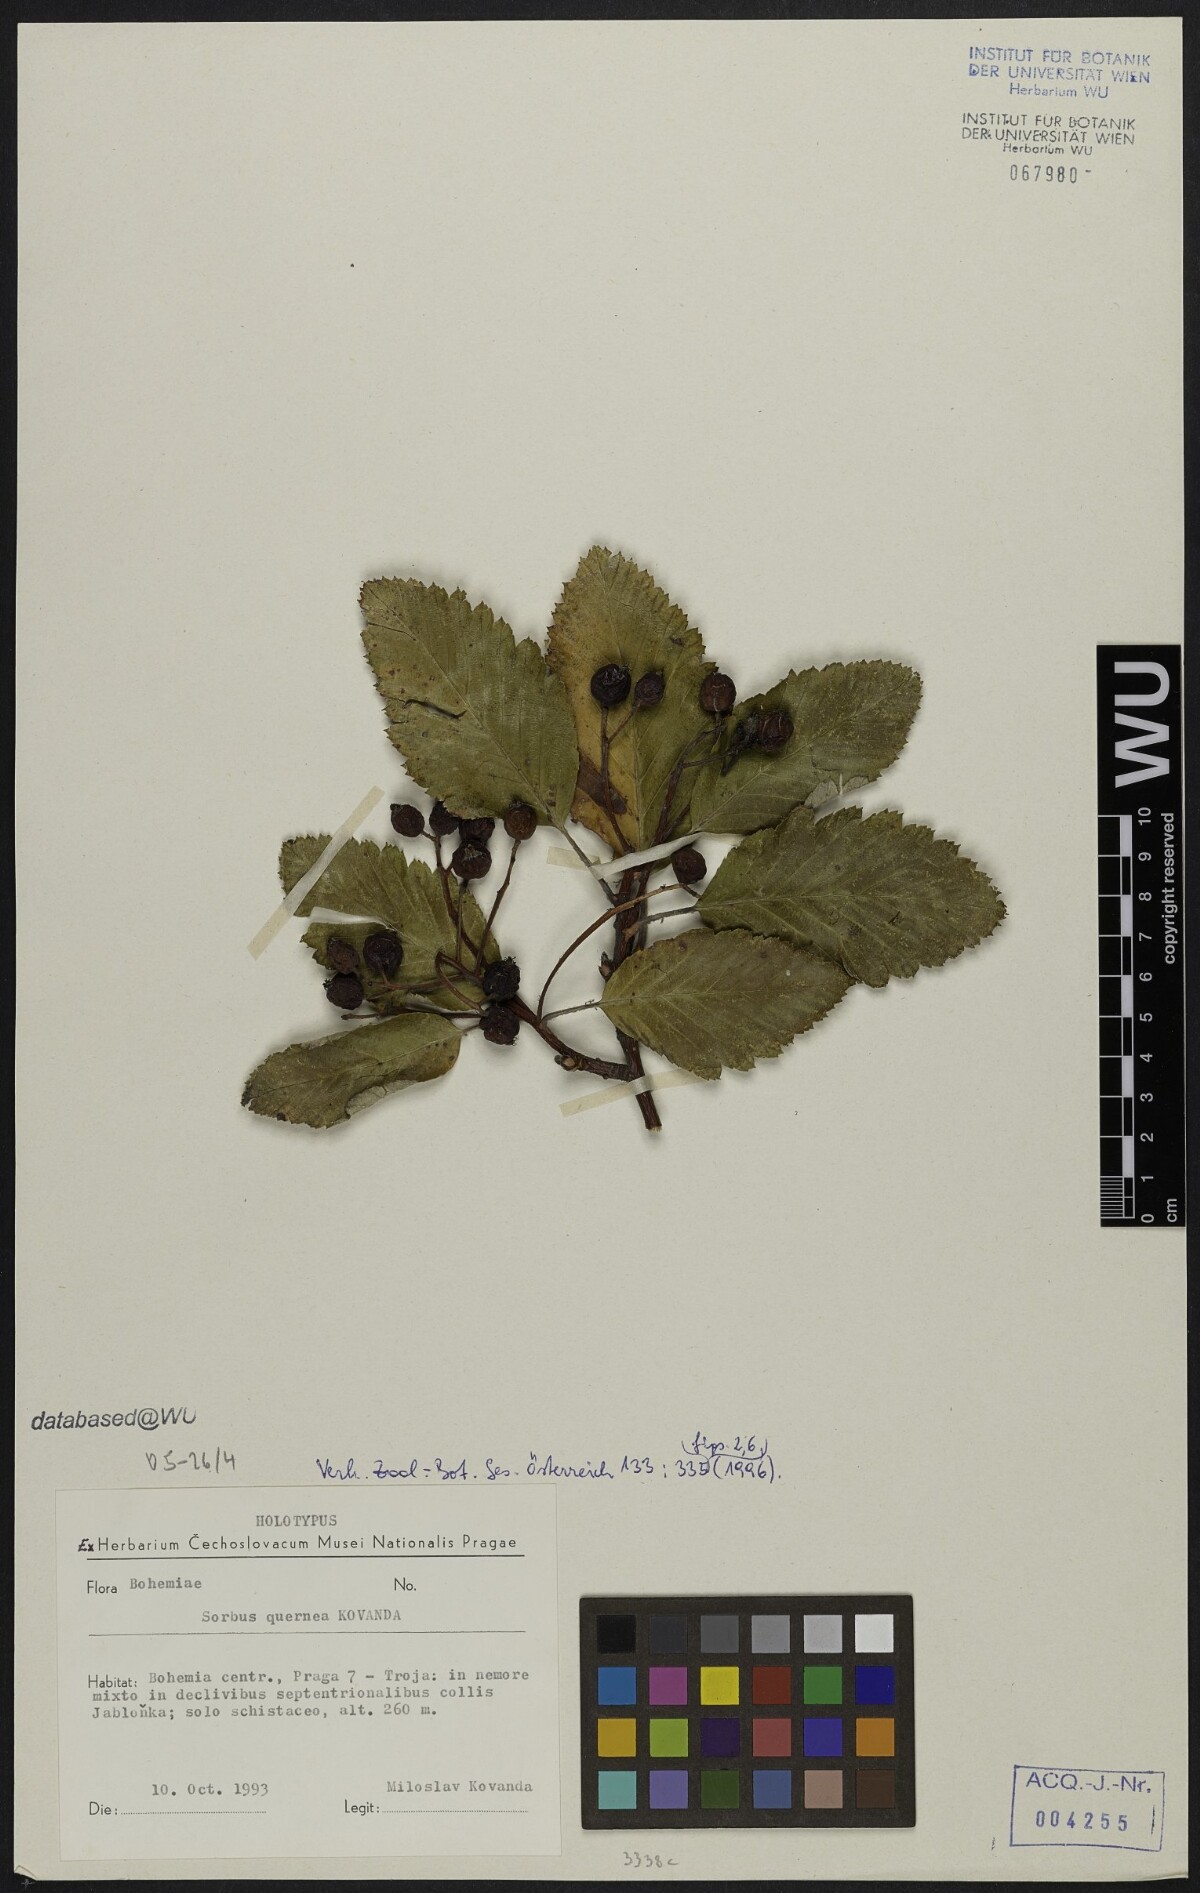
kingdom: Plantae
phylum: Tracheophyta
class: Magnoliopsida
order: Rosales
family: Rosaceae
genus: Hedlundia
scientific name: Hedlundia mougeotii
